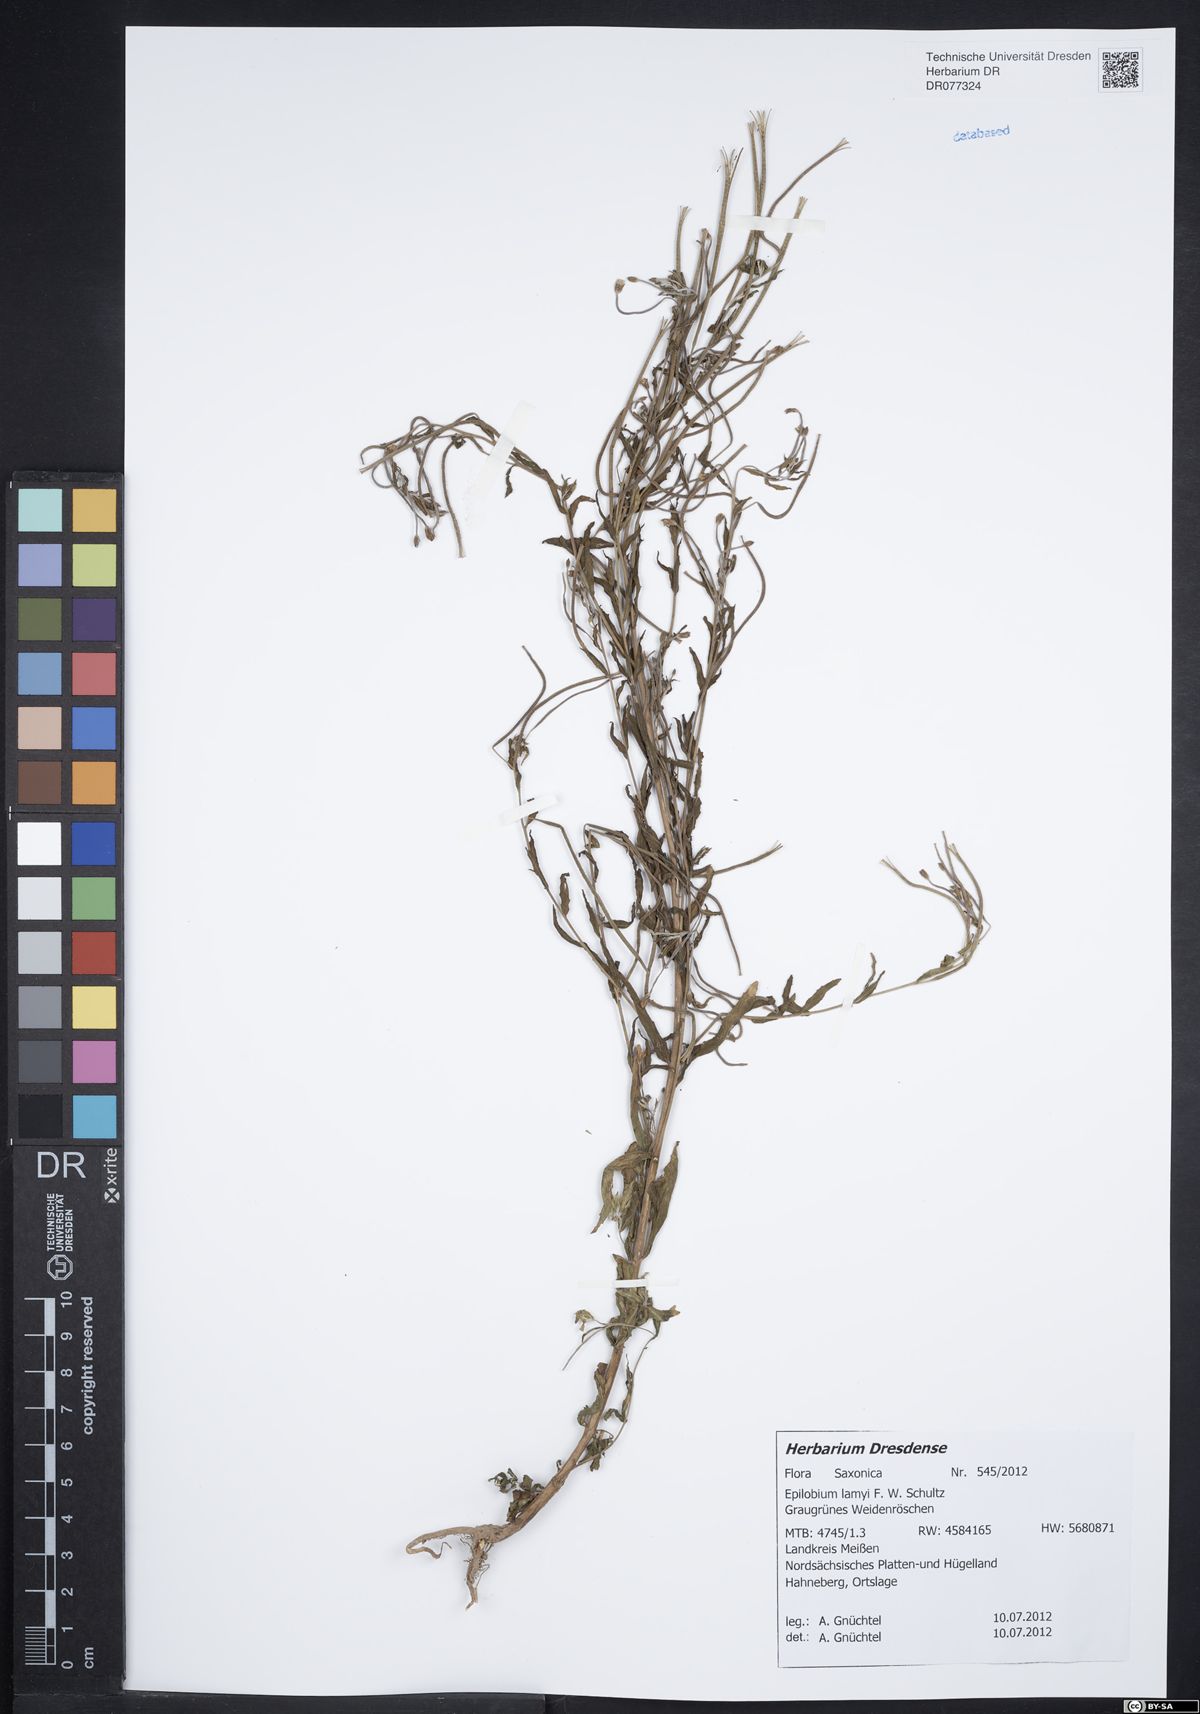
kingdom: Plantae
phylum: Tracheophyta
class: Magnoliopsida
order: Myrtales
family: Onagraceae
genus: Epilobium
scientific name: Epilobium lamyi
